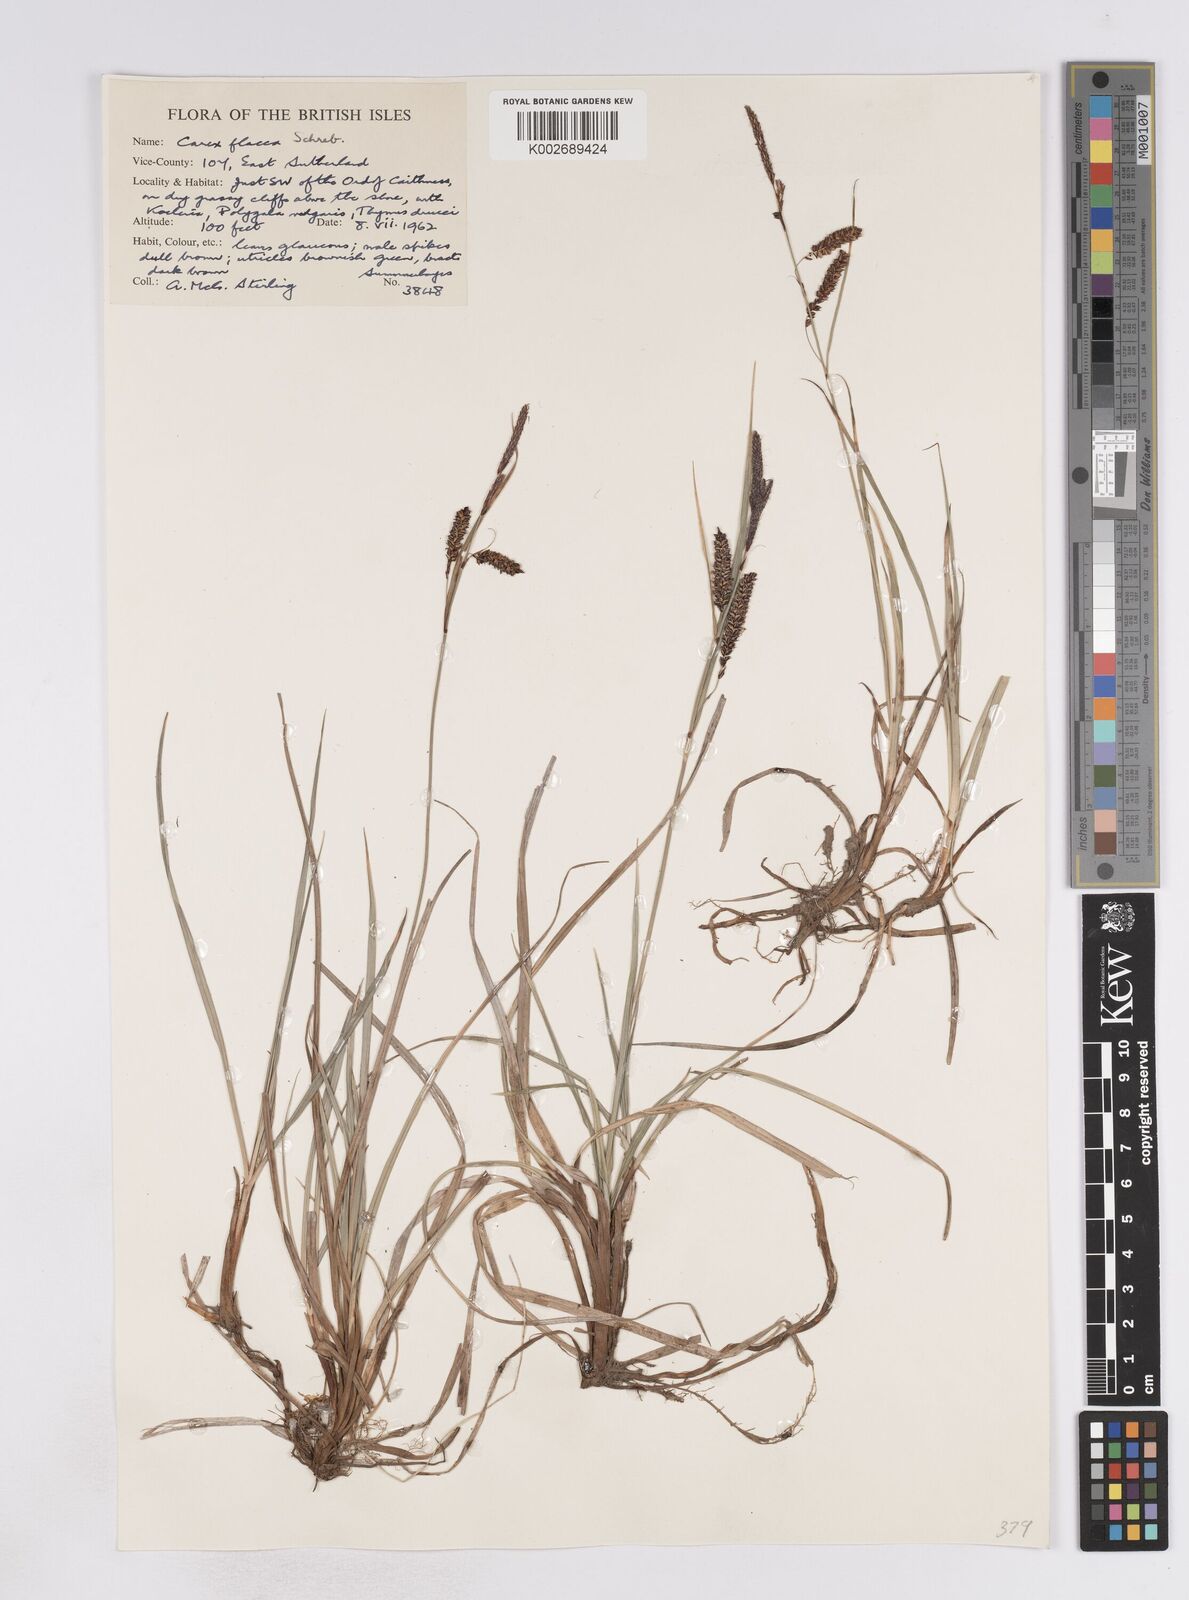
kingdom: Plantae
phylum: Tracheophyta
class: Liliopsida
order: Poales
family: Cyperaceae
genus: Carex
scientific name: Carex flacca
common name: Glaucous sedge
